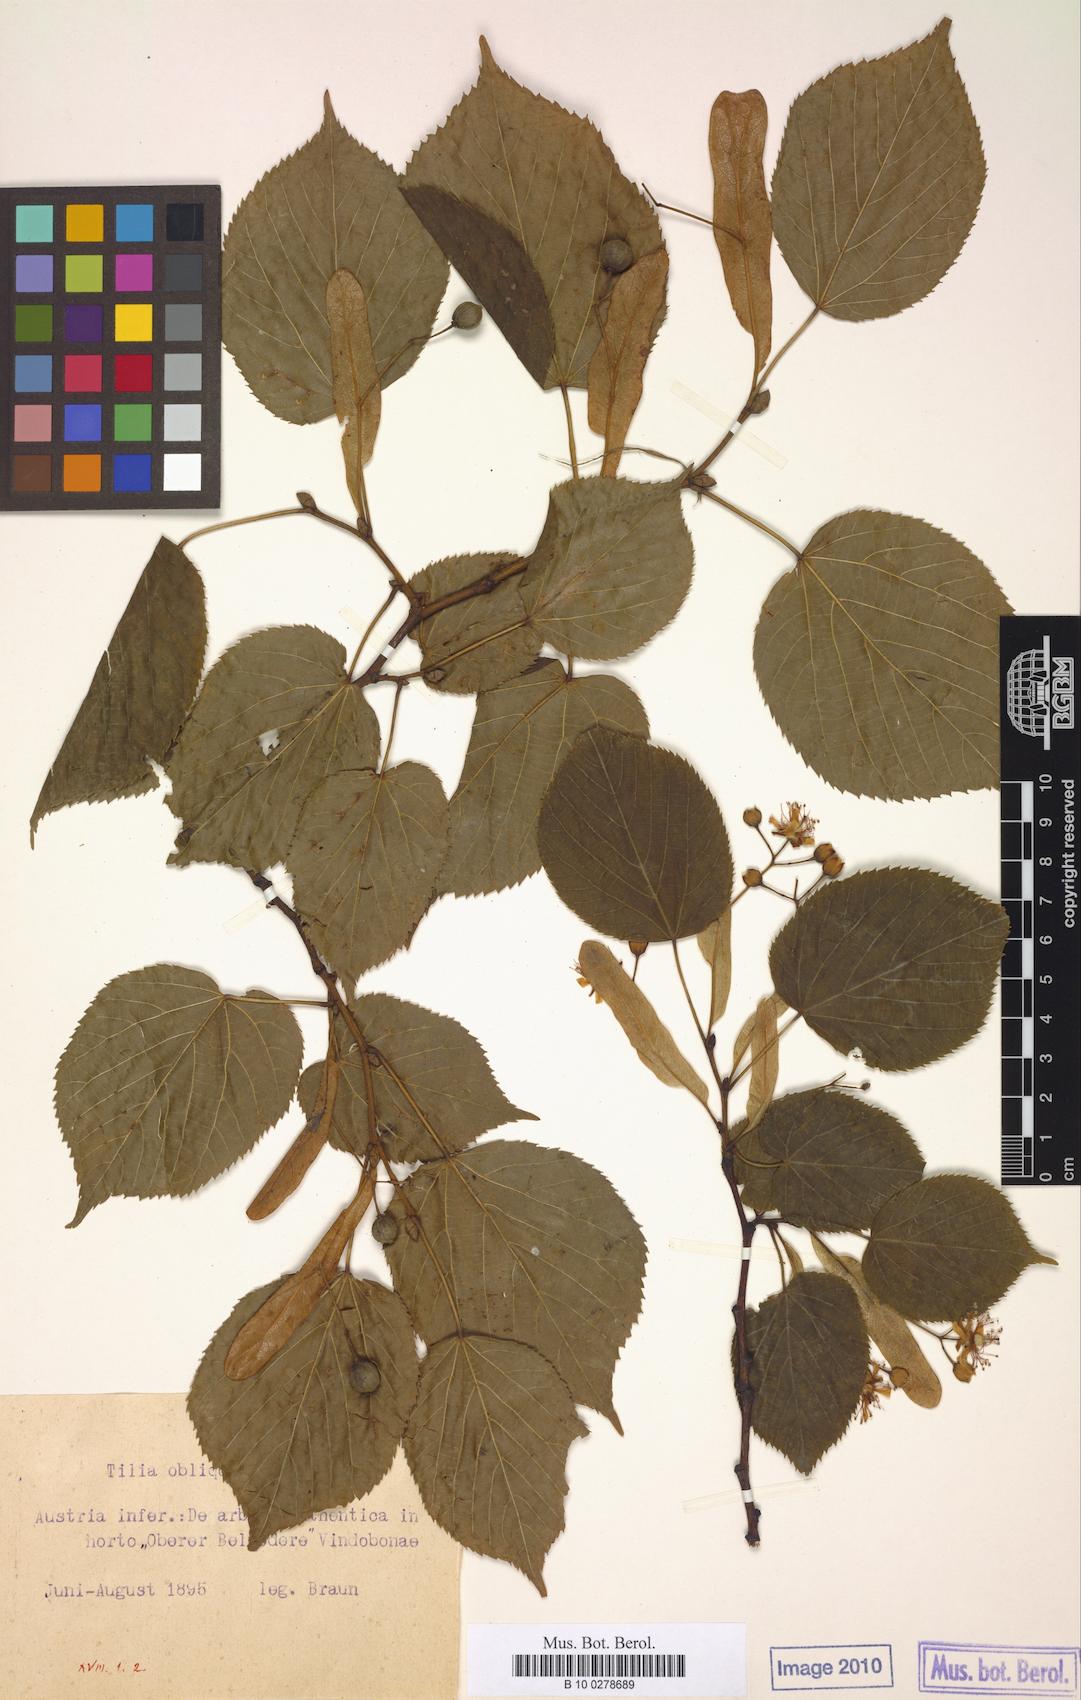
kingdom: Plantae
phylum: Tracheophyta
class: Magnoliopsida
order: Malvales
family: Malvaceae
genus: Tilia
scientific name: Tilia platyphyllos
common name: Large-leaved lime
